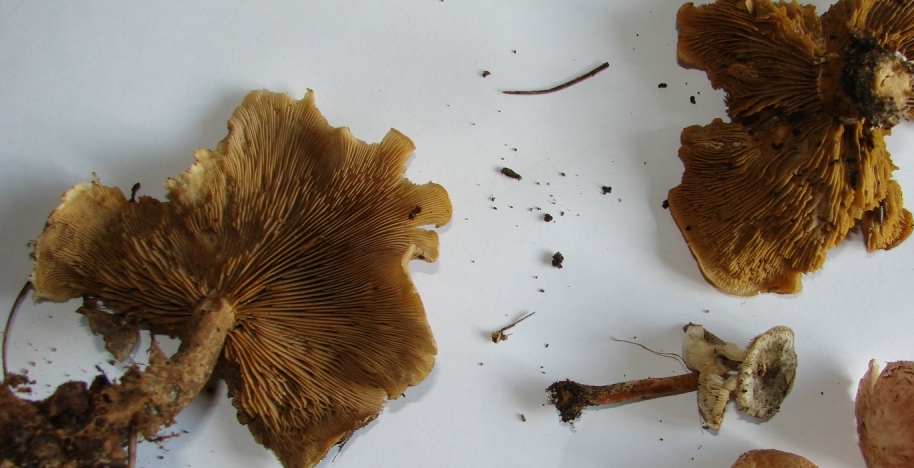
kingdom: Fungi
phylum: Basidiomycota
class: Agaricomycetes
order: Agaricales
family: Lyophyllaceae
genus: Calocybe
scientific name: Calocybe hebelomoides
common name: lerbrun fagerhat
